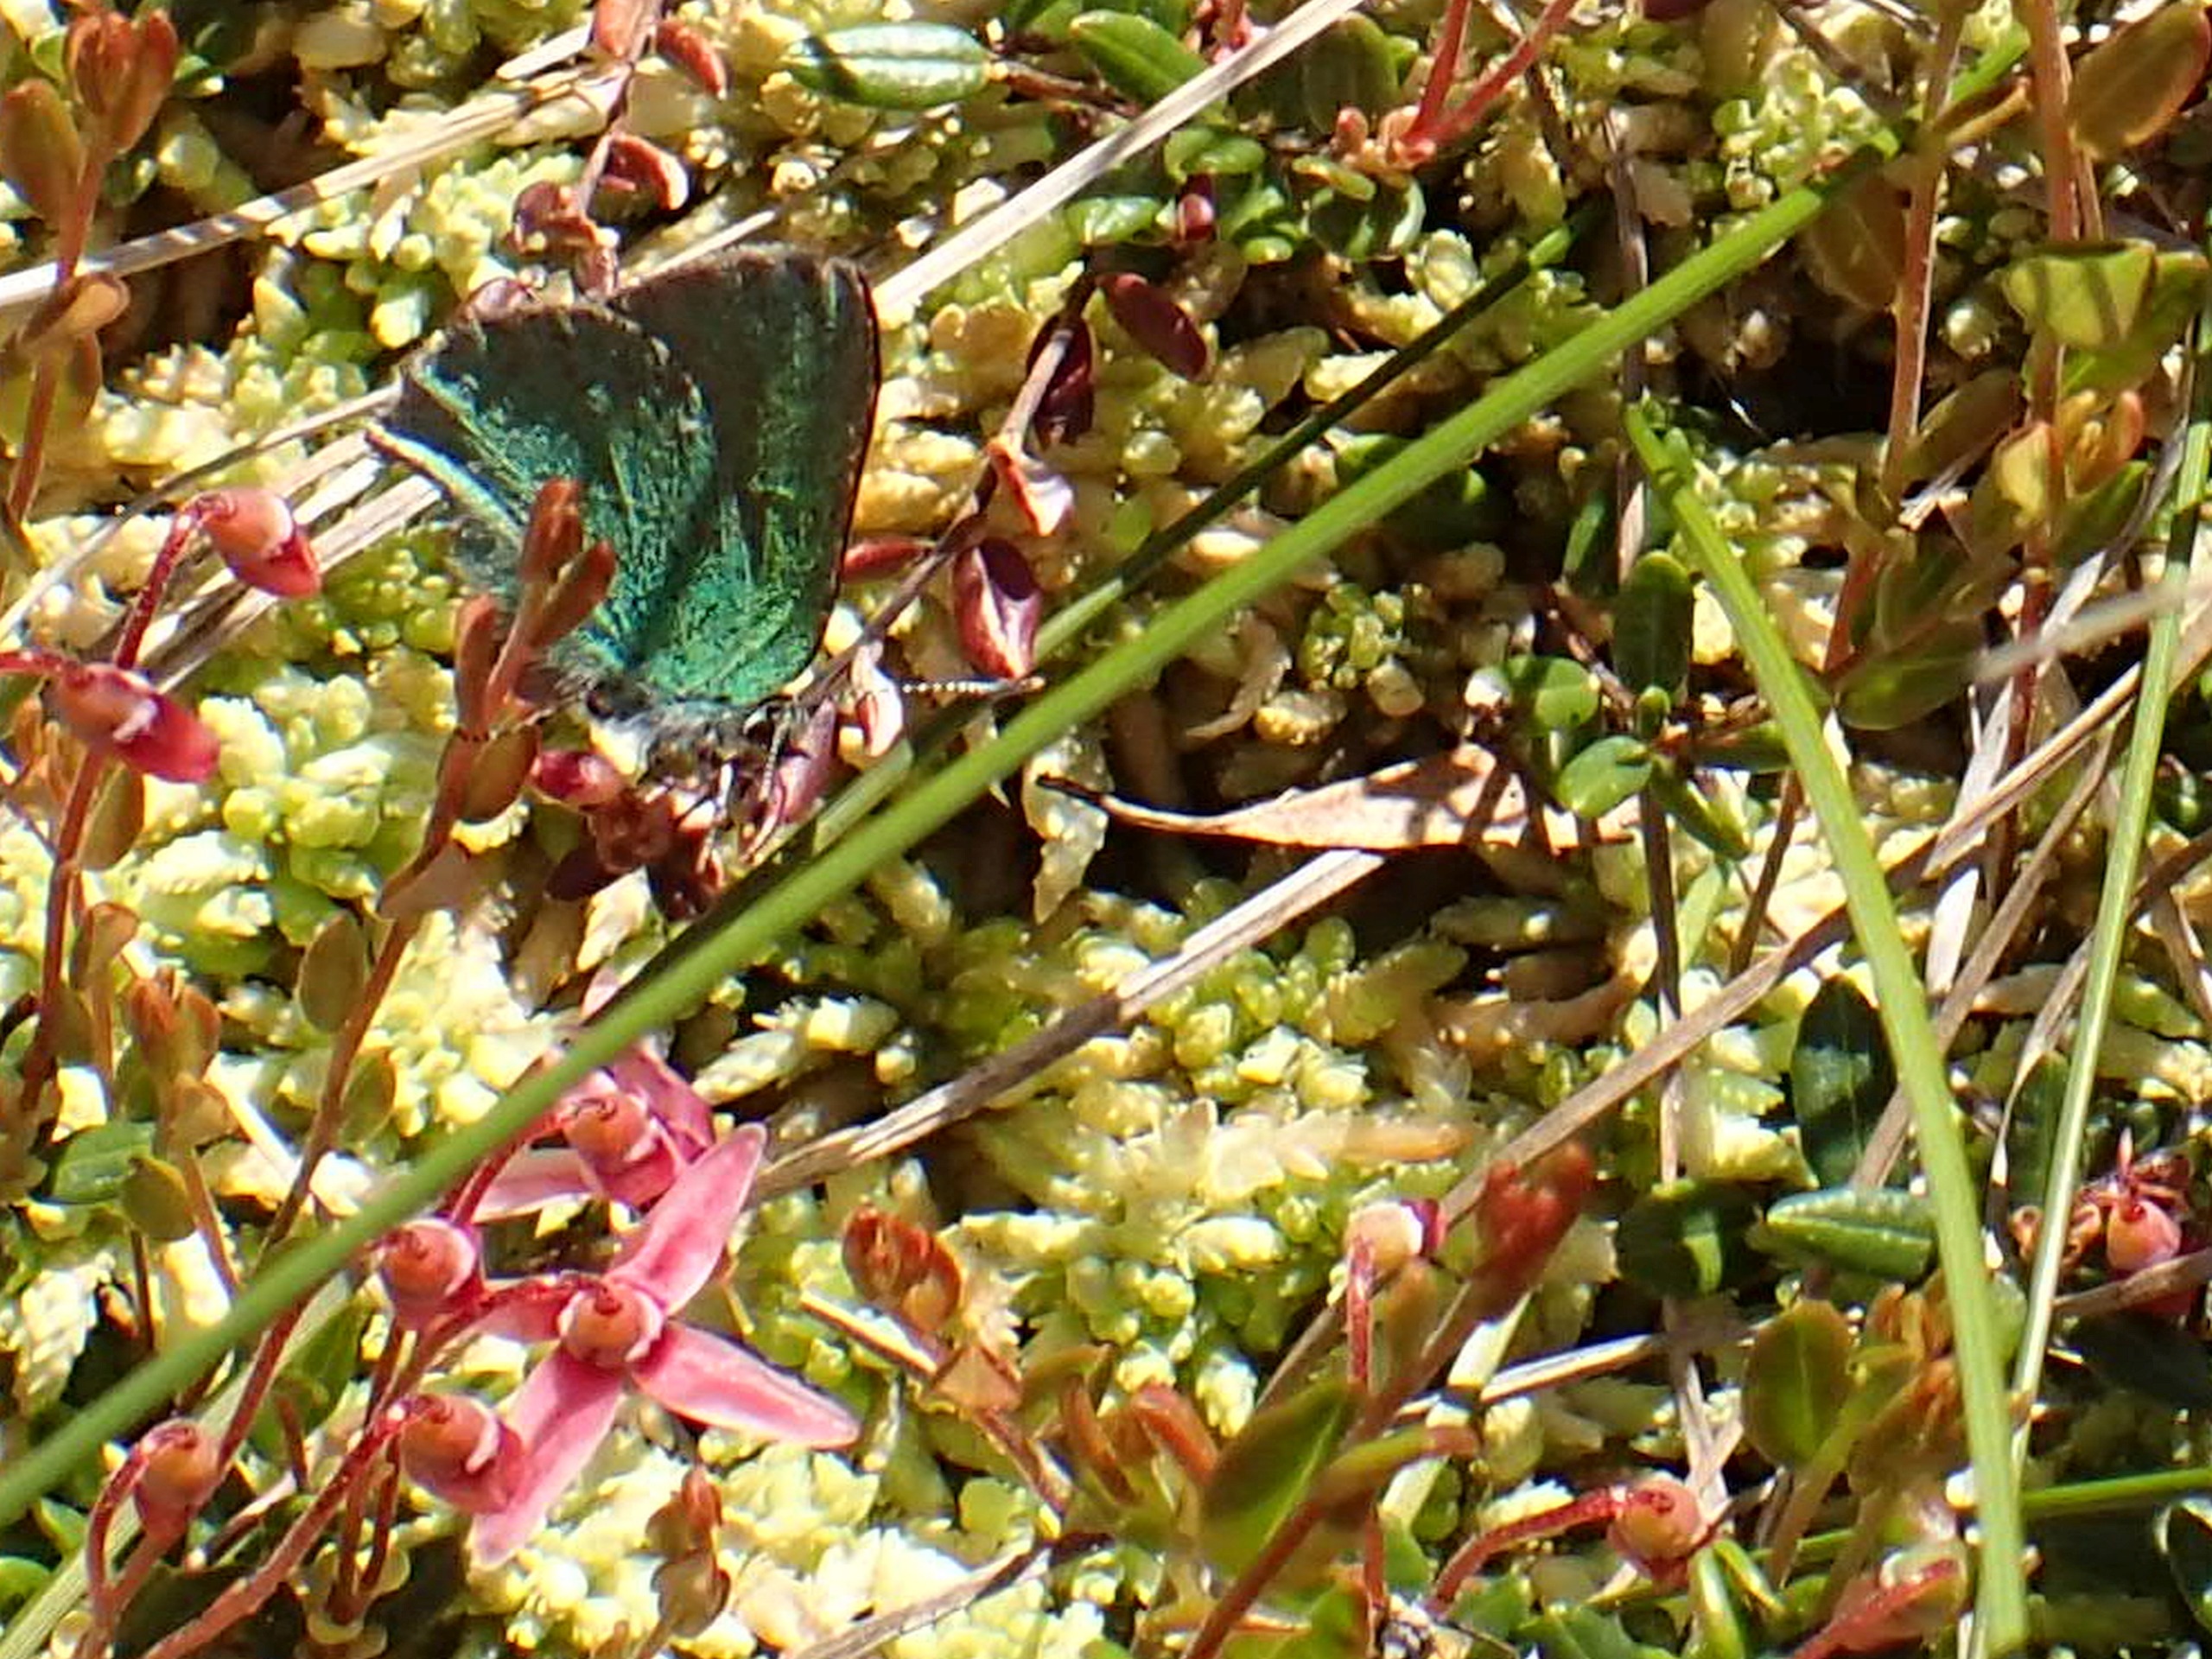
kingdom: Animalia
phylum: Arthropoda
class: Insecta
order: Lepidoptera
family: Lycaenidae
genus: Callophrys
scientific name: Callophrys rubi
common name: Grøn busksommerfugl
